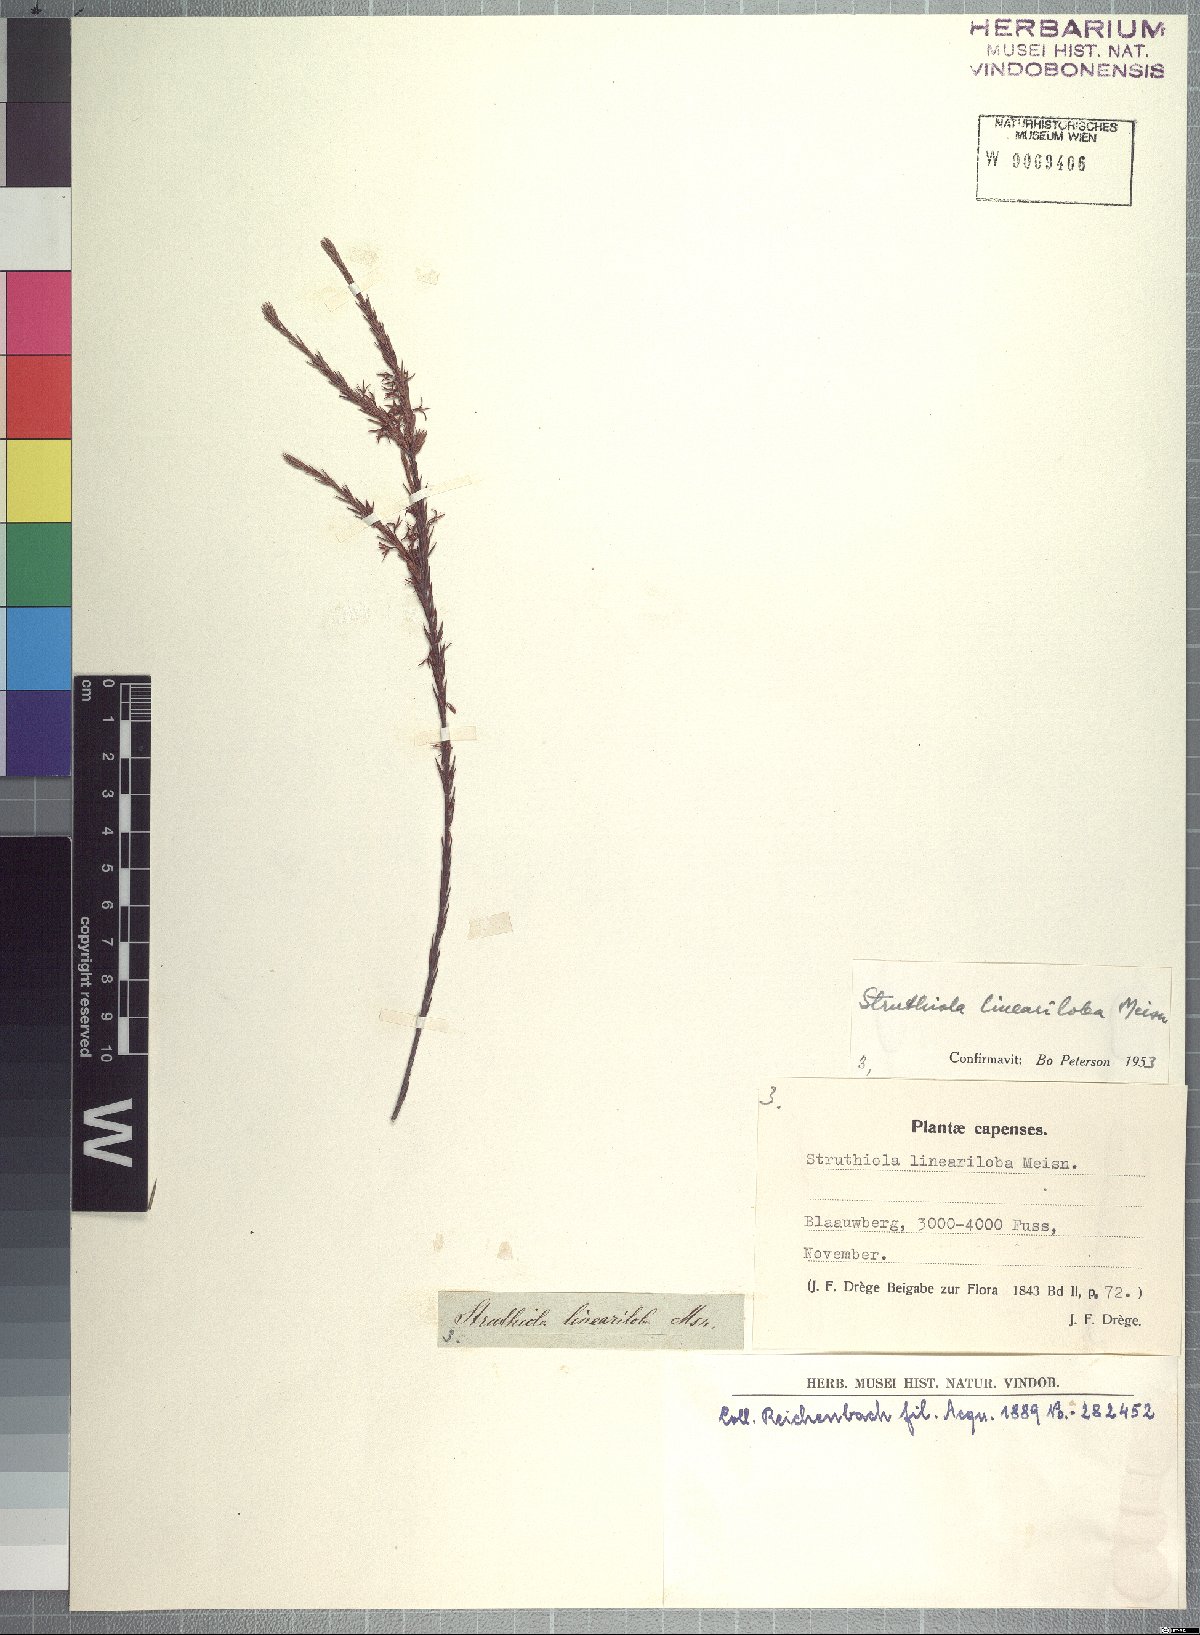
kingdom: Plantae
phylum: Tracheophyta
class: Magnoliopsida
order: Malvales
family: Thymelaeaceae
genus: Struthiola
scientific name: Struthiola lineariloba
